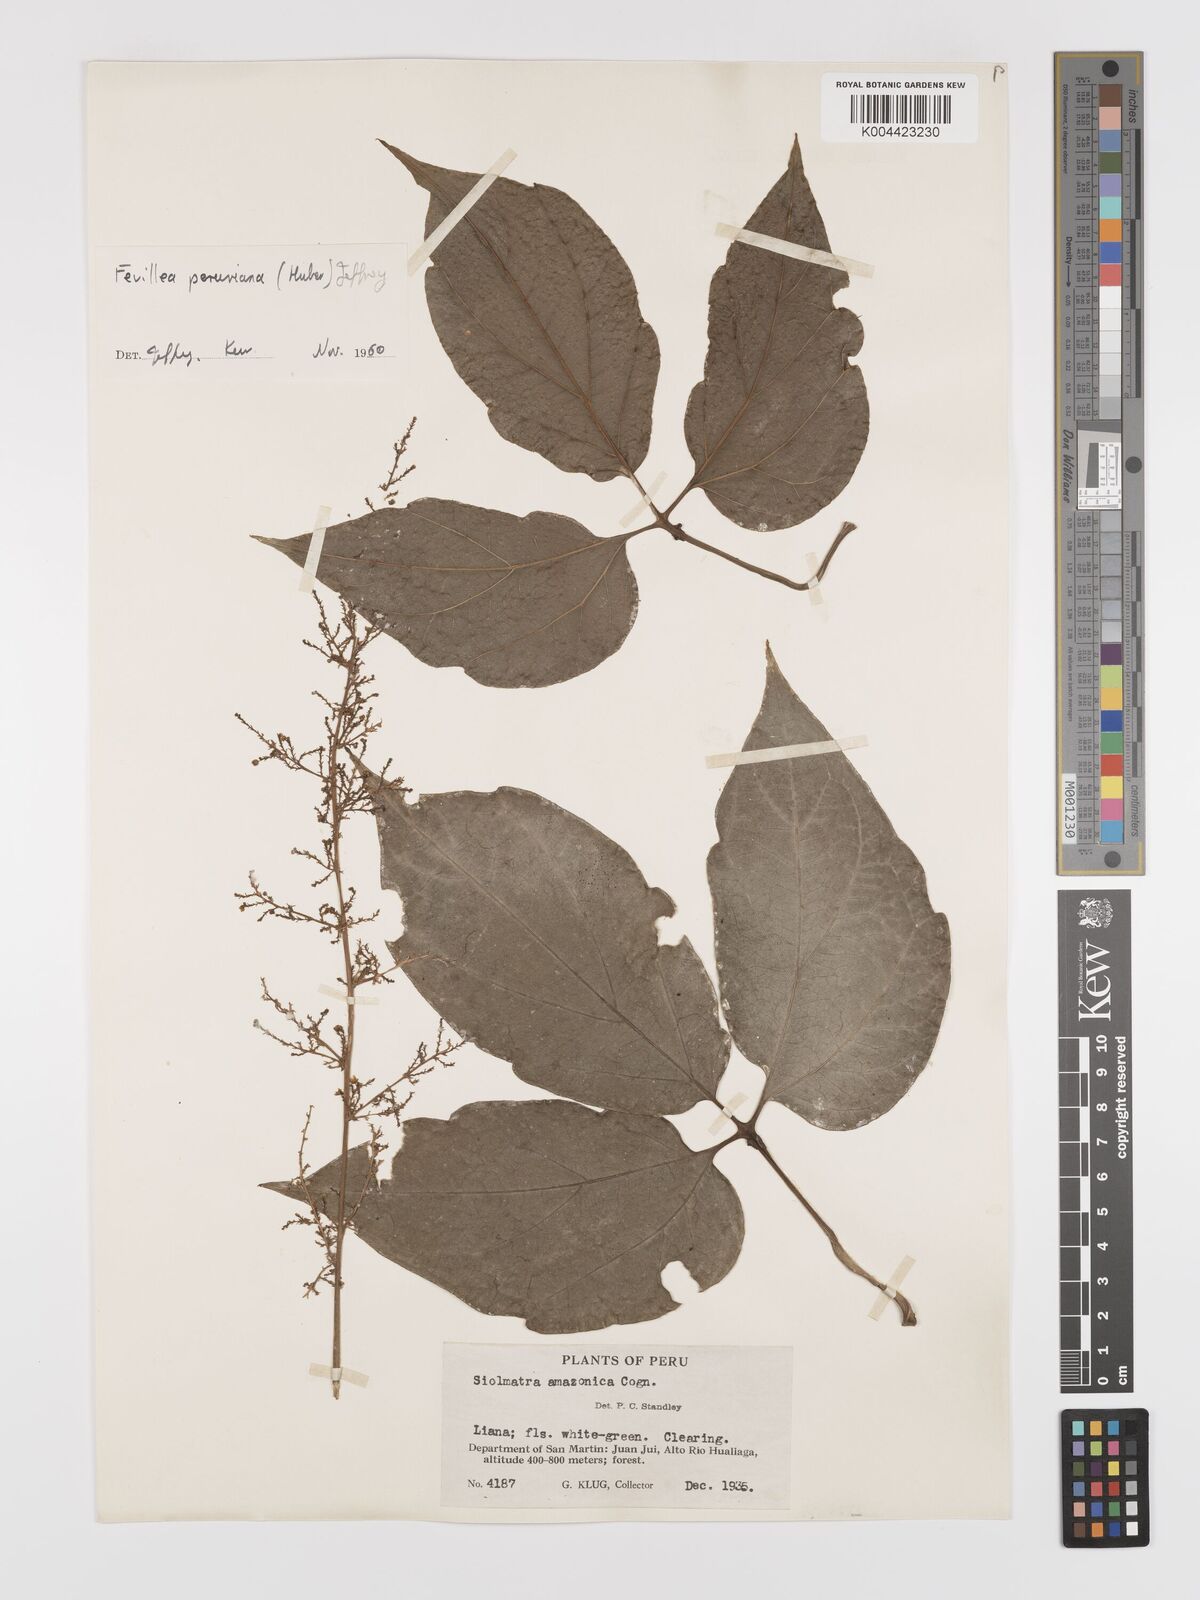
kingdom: Plantae
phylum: Tracheophyta
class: Magnoliopsida
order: Cucurbitales
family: Cucurbitaceae
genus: Fevillea
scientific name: Fevillea pedatifolia
